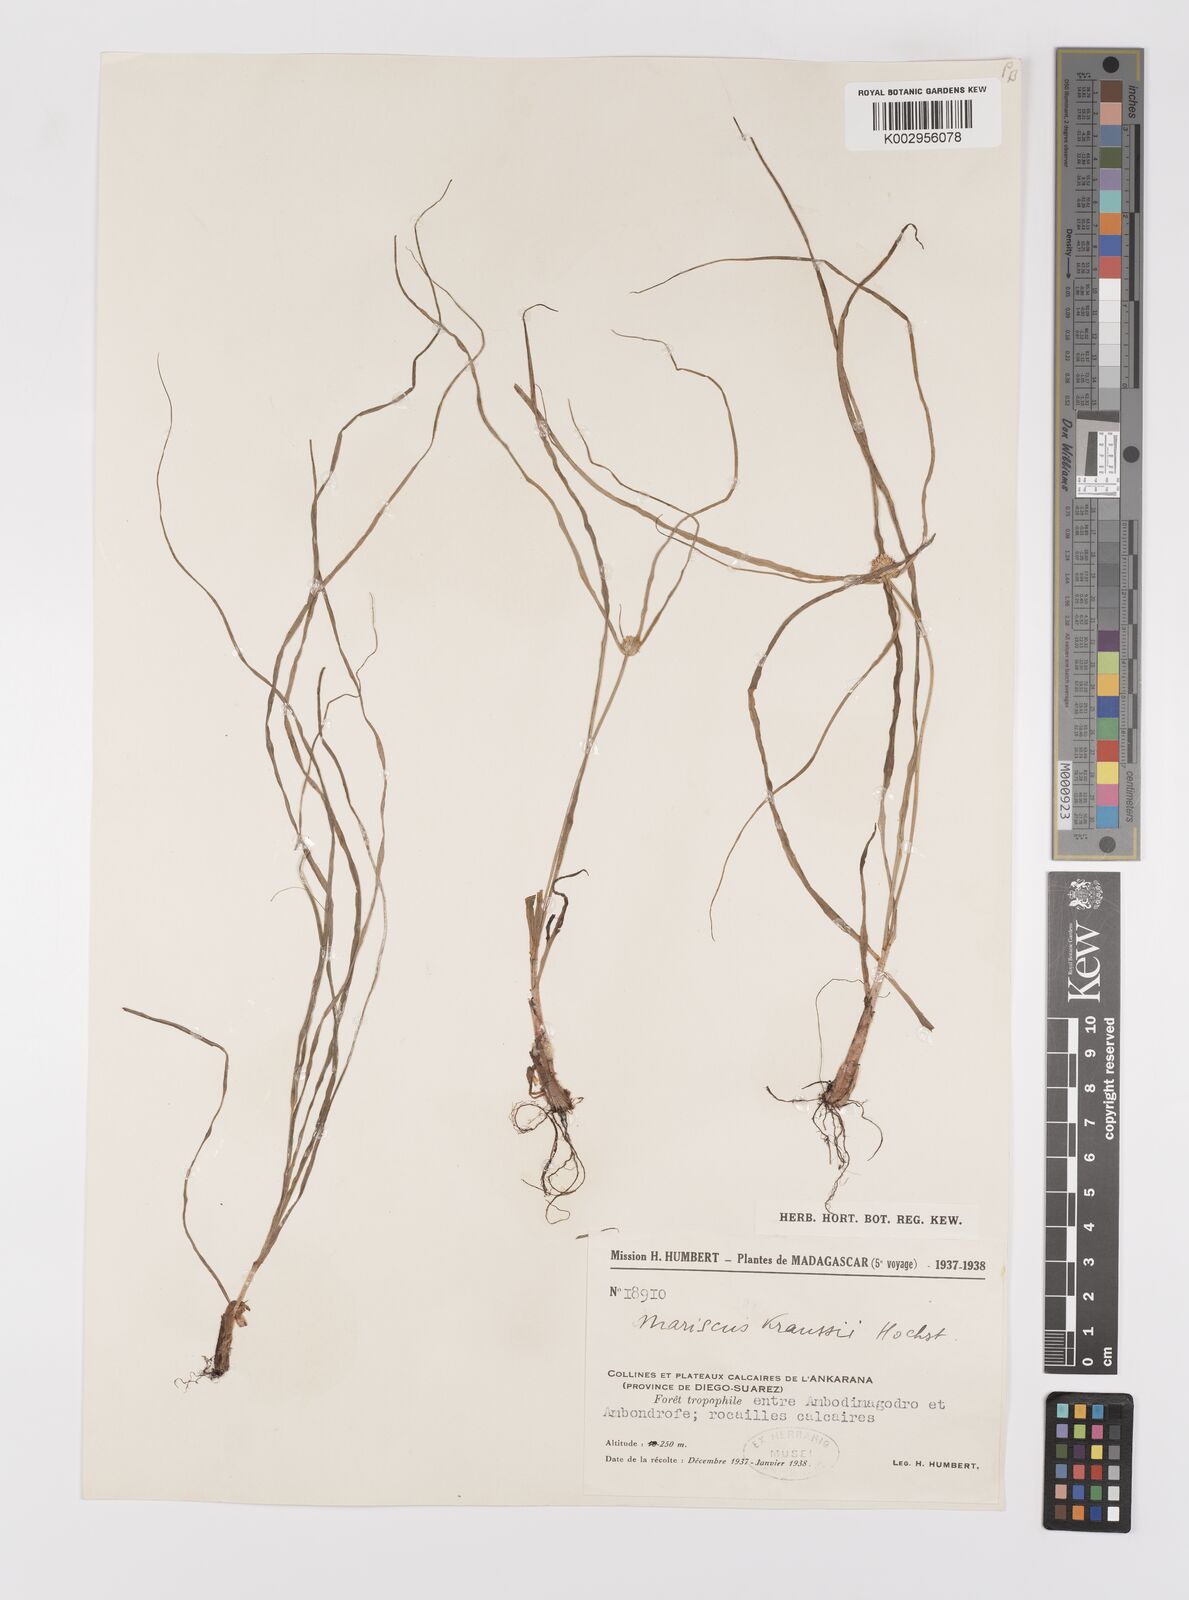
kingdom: Plantae
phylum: Tracheophyta
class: Liliopsida
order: Poales
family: Cyperaceae
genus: Cyperus
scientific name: Cyperus dubius
